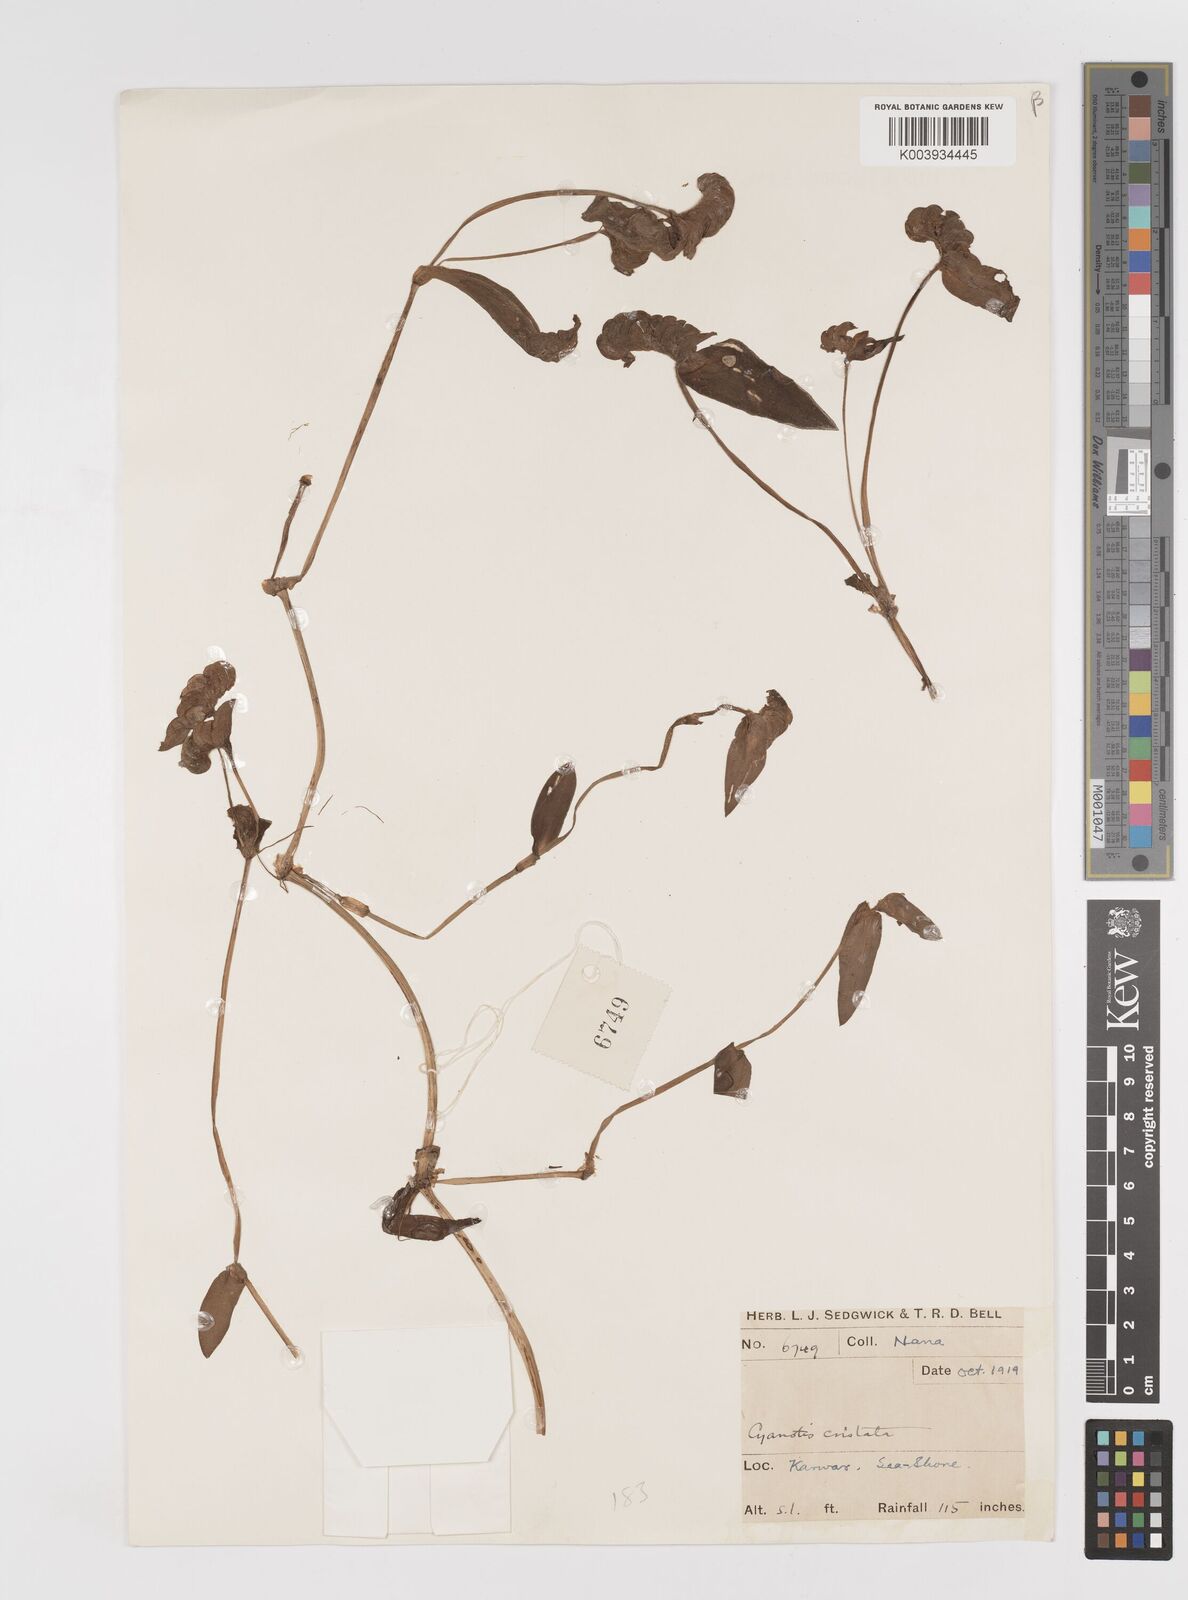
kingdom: Plantae
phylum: Tracheophyta
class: Liliopsida
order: Commelinales
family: Commelinaceae
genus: Cyanotis
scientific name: Cyanotis cristata
